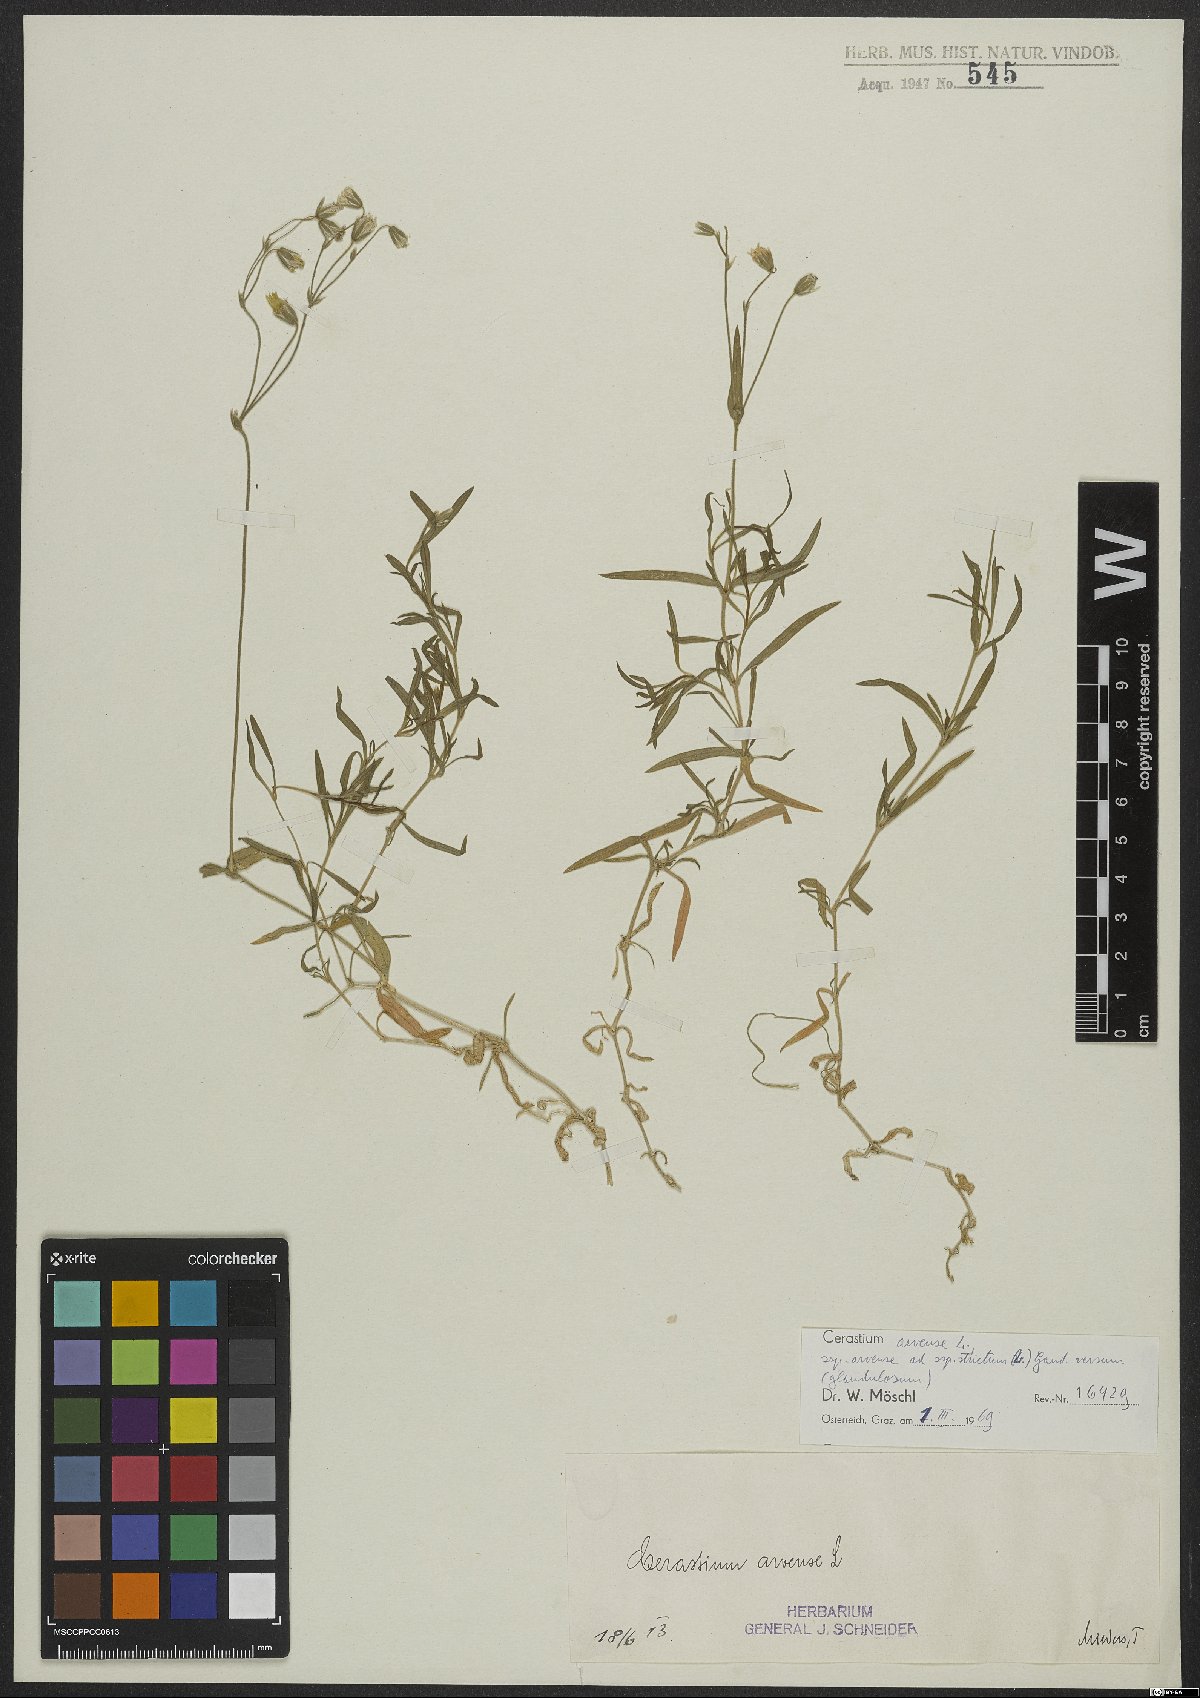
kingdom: Plantae
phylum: Tracheophyta
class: Magnoliopsida
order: Caryophyllales
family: Caryophyllaceae
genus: Cerastium
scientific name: Cerastium elongatum
